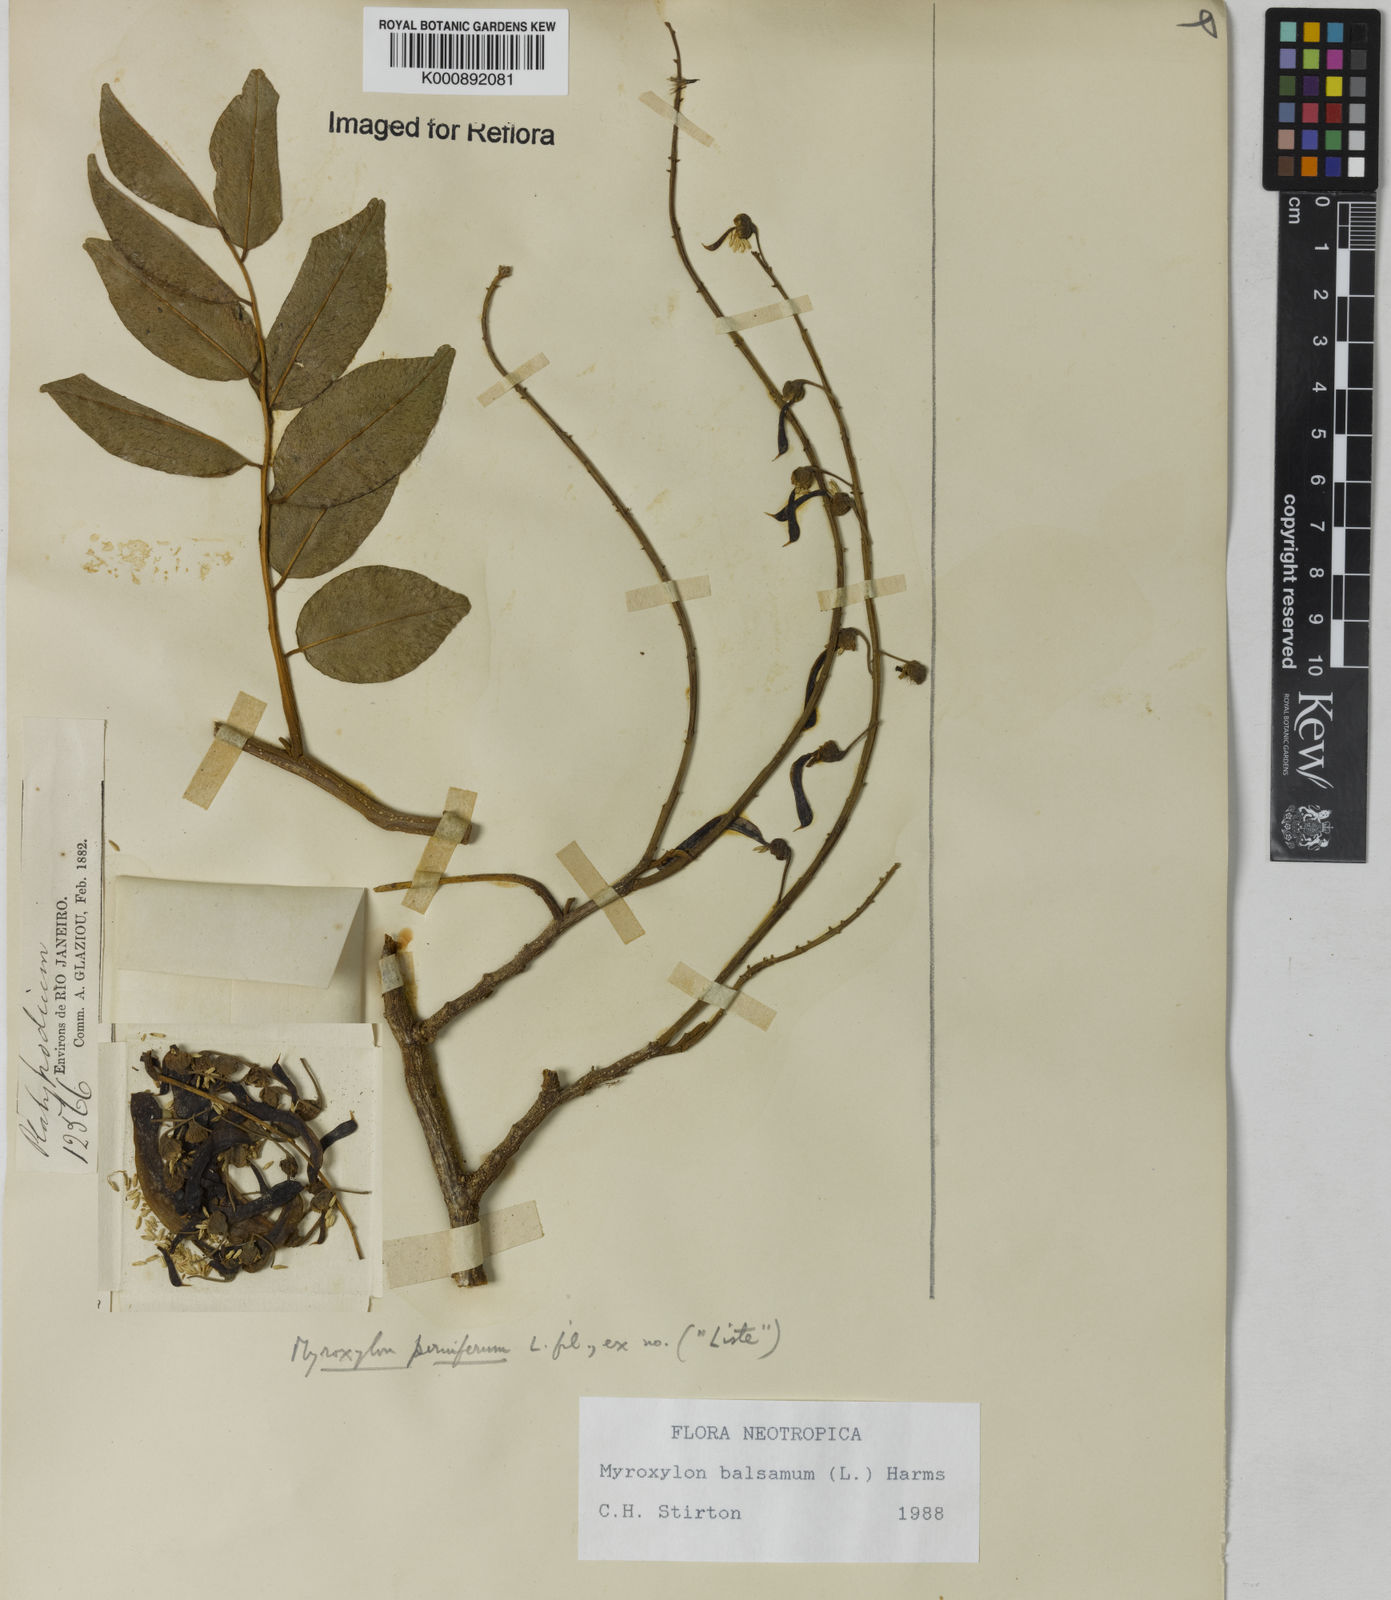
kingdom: Plantae
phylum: Tracheophyta
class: Magnoliopsida
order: Fabales
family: Fabaceae
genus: Myroxylon
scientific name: Myroxylon balsamum
